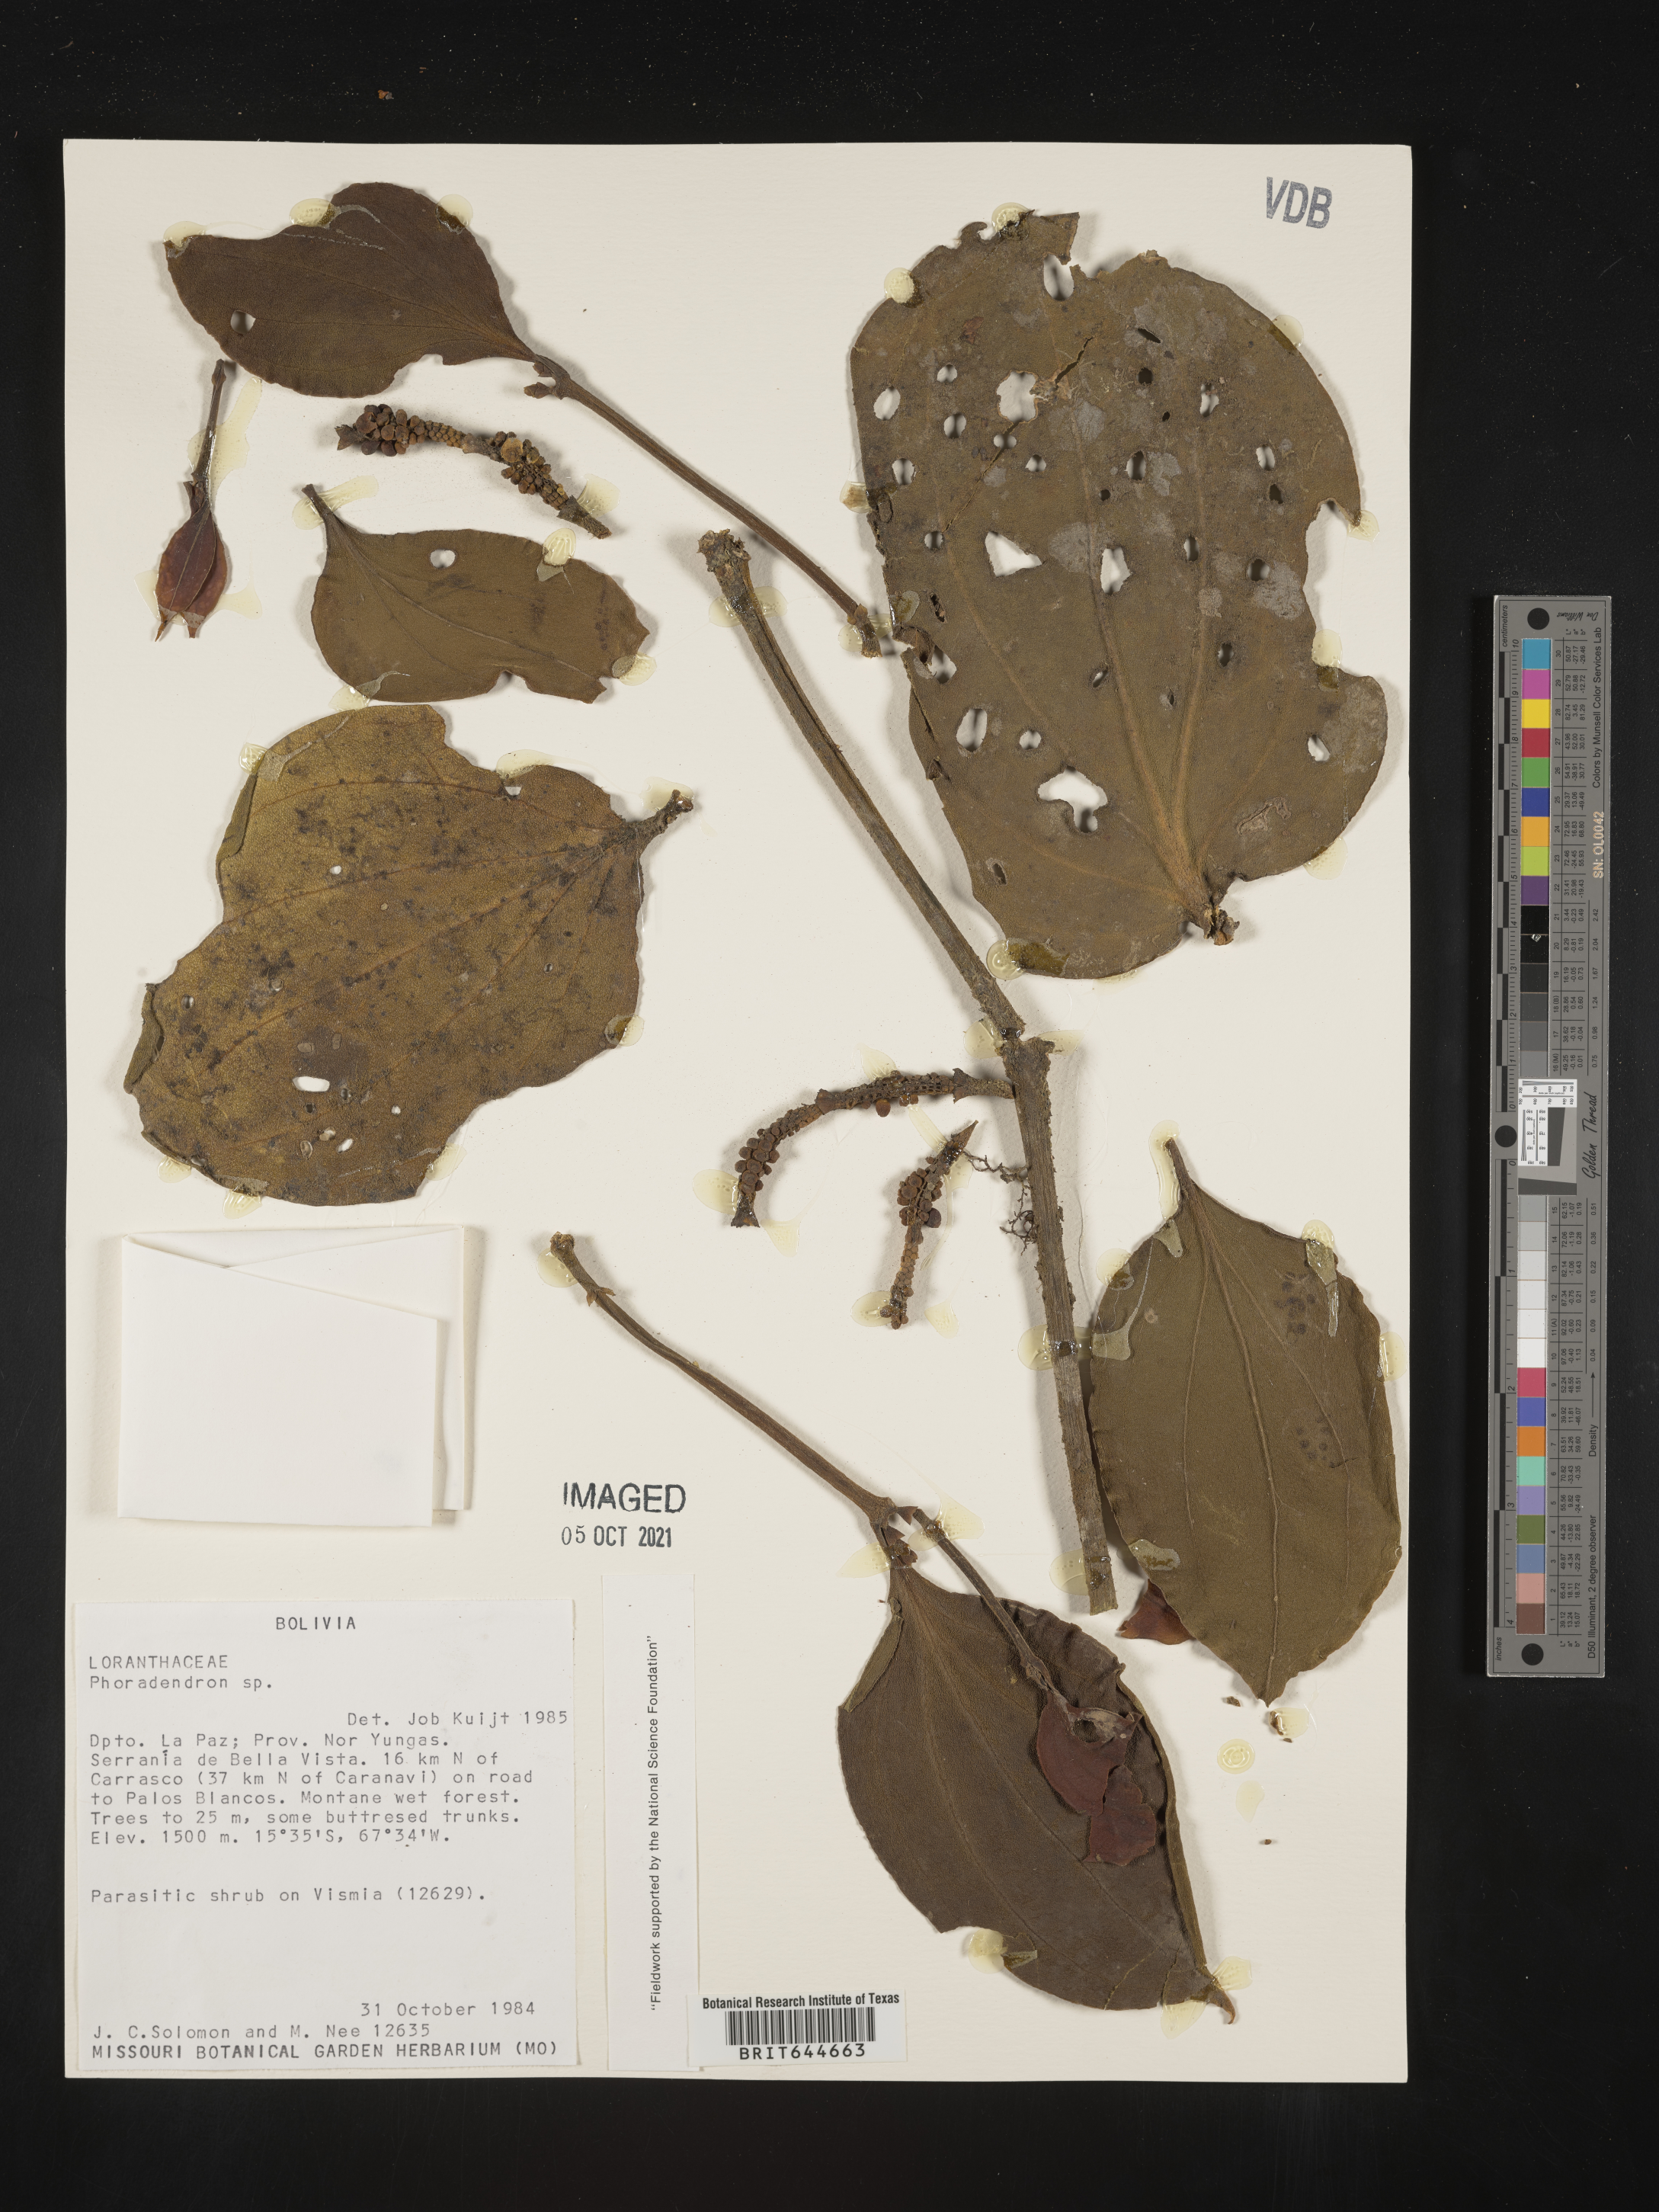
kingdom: Plantae
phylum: Tracheophyta
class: Magnoliopsida
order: Santalales
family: Viscaceae
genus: Phoradendron
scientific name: Phoradendron
